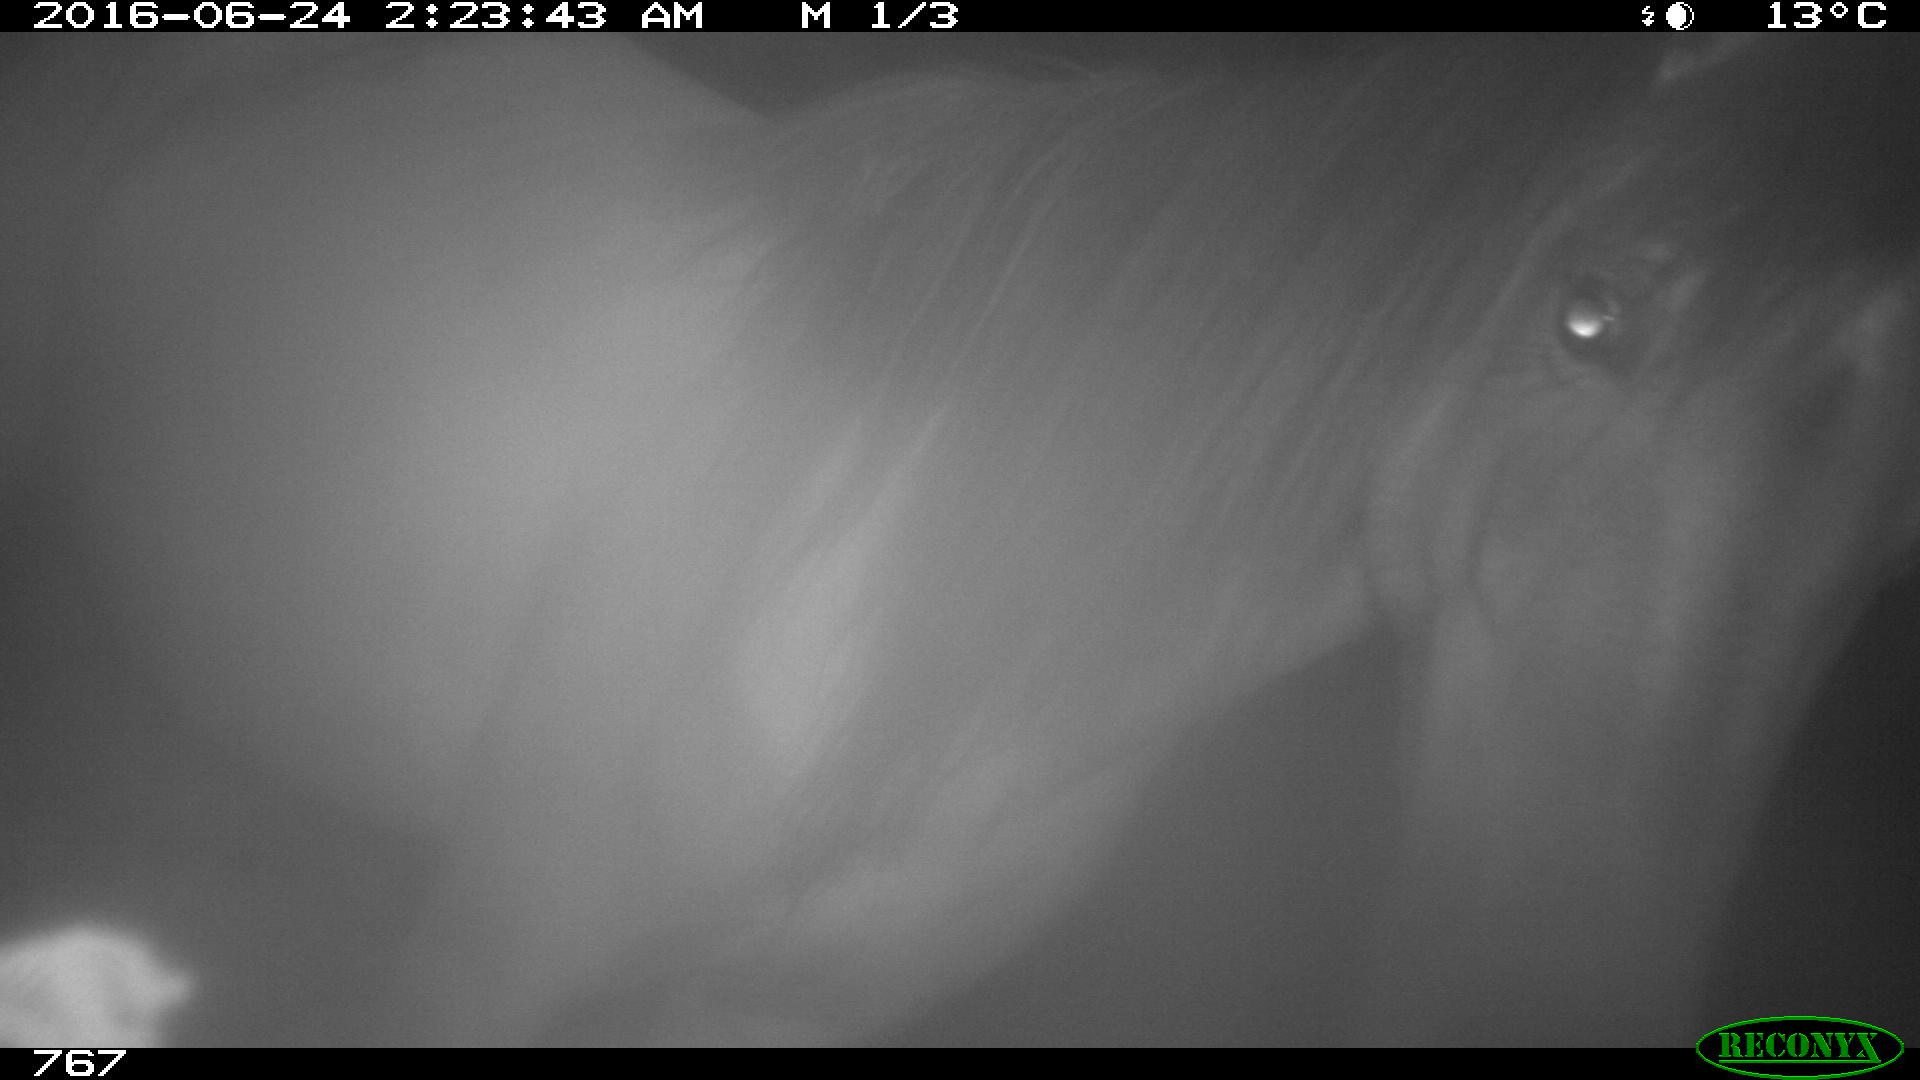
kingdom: Animalia
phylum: Chordata
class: Mammalia
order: Perissodactyla
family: Equidae
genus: Equus
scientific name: Equus caballus
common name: Horse
